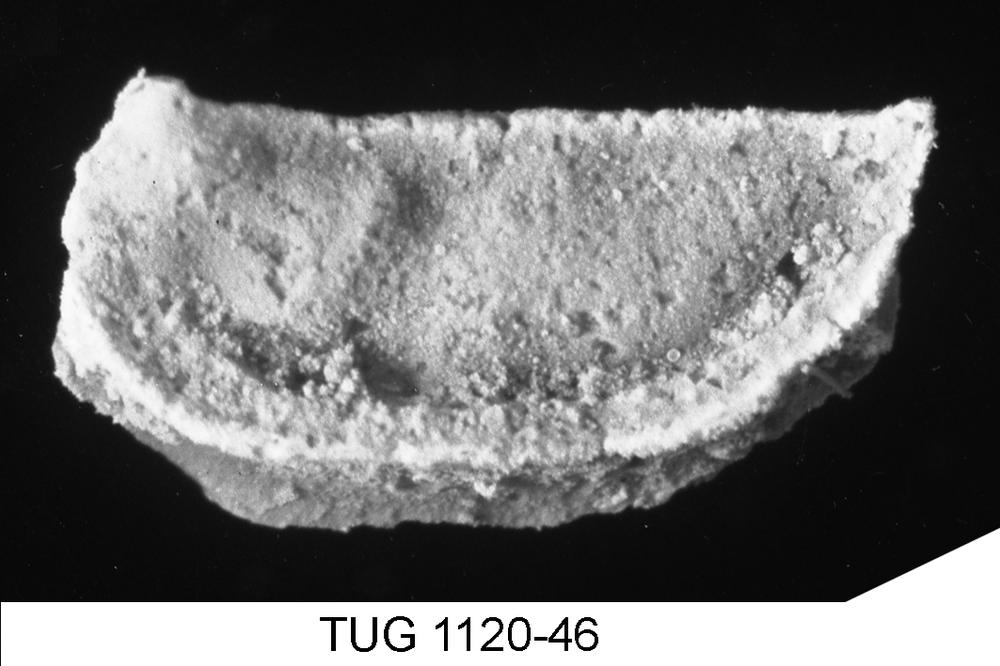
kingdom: Animalia
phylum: Arthropoda
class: Ostracoda
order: Palaeocopida
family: Tetradellidae
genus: Polyceratella
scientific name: Polyceratella
